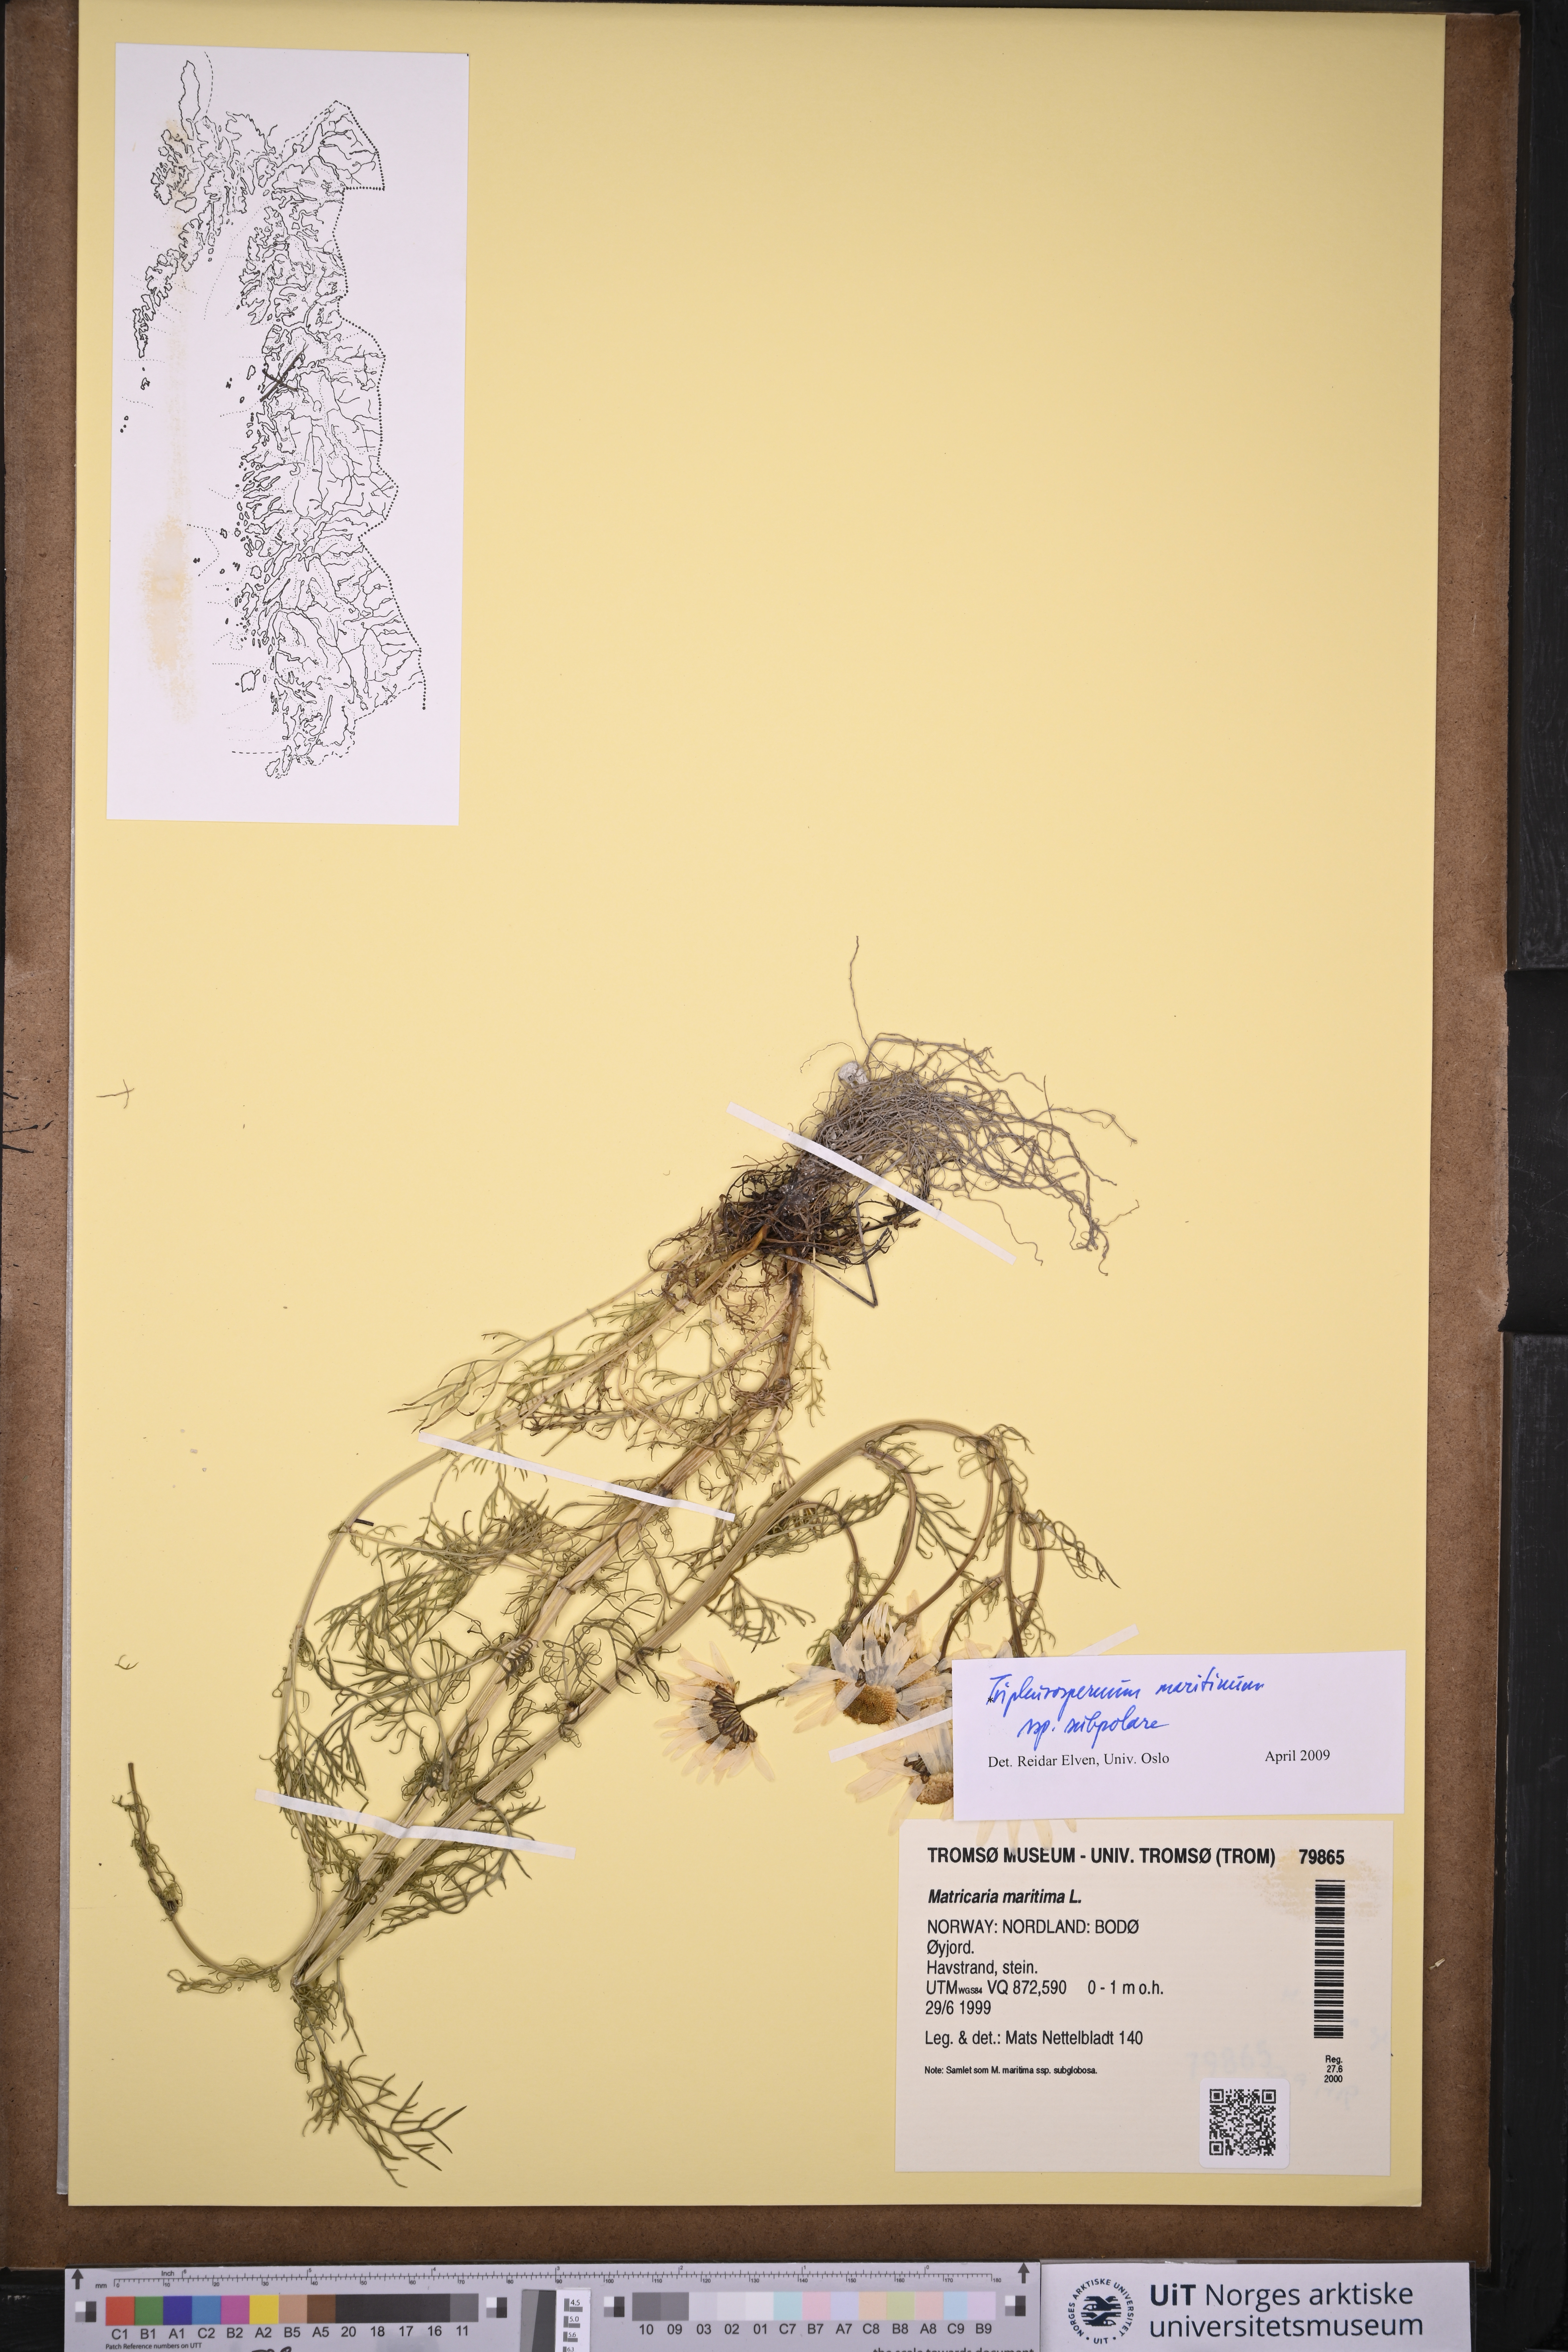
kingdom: Plantae
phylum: Tracheophyta
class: Magnoliopsida
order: Asterales
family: Asteraceae
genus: Tripleurospermum
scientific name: Tripleurospermum subpolare
